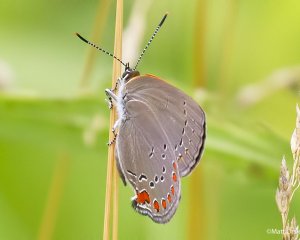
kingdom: Animalia
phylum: Arthropoda
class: Insecta
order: Lepidoptera
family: Lycaenidae
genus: Harkenclenus
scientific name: Harkenclenus titus
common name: Coral Hairstreak
